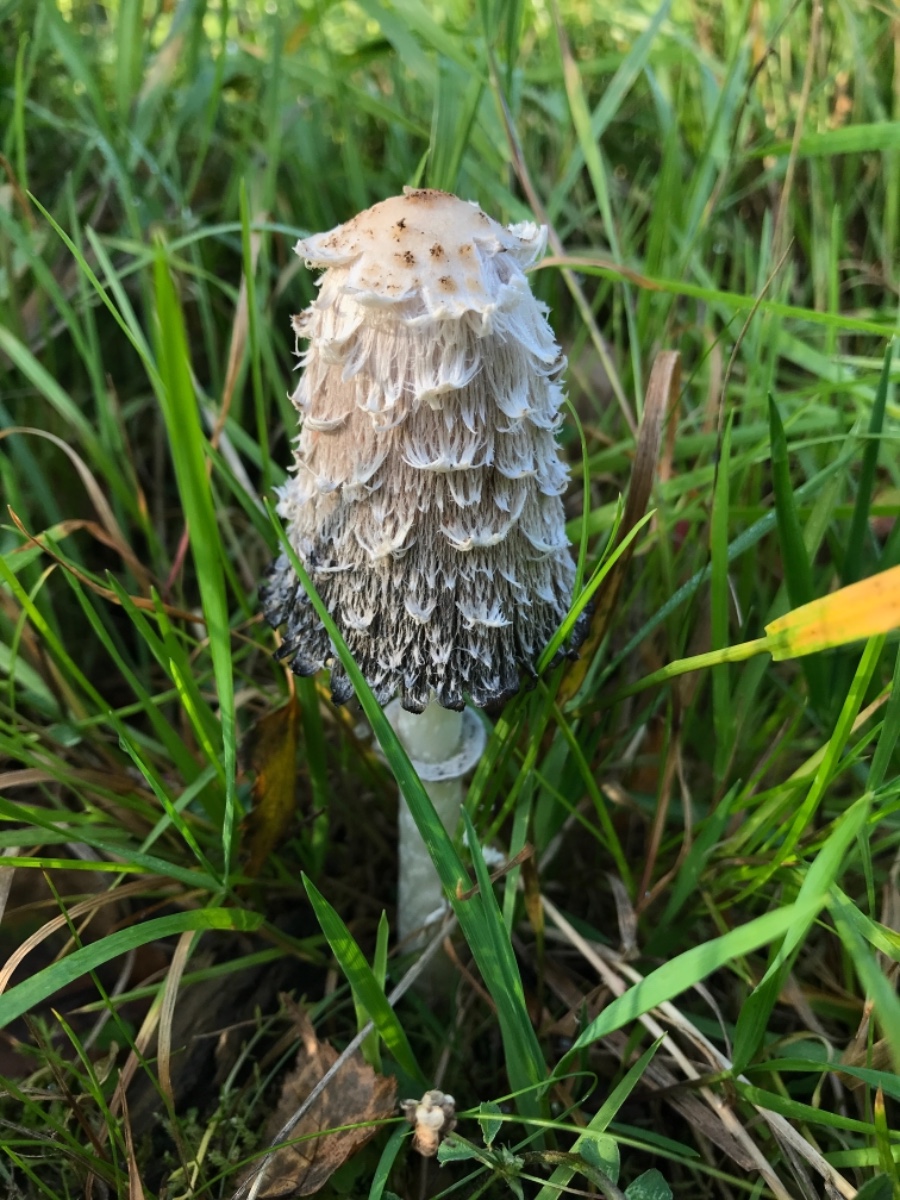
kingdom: Fungi
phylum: Basidiomycota
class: Agaricomycetes
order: Agaricales
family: Agaricaceae
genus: Coprinus
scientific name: Coprinus comatus
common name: stor parykhat
